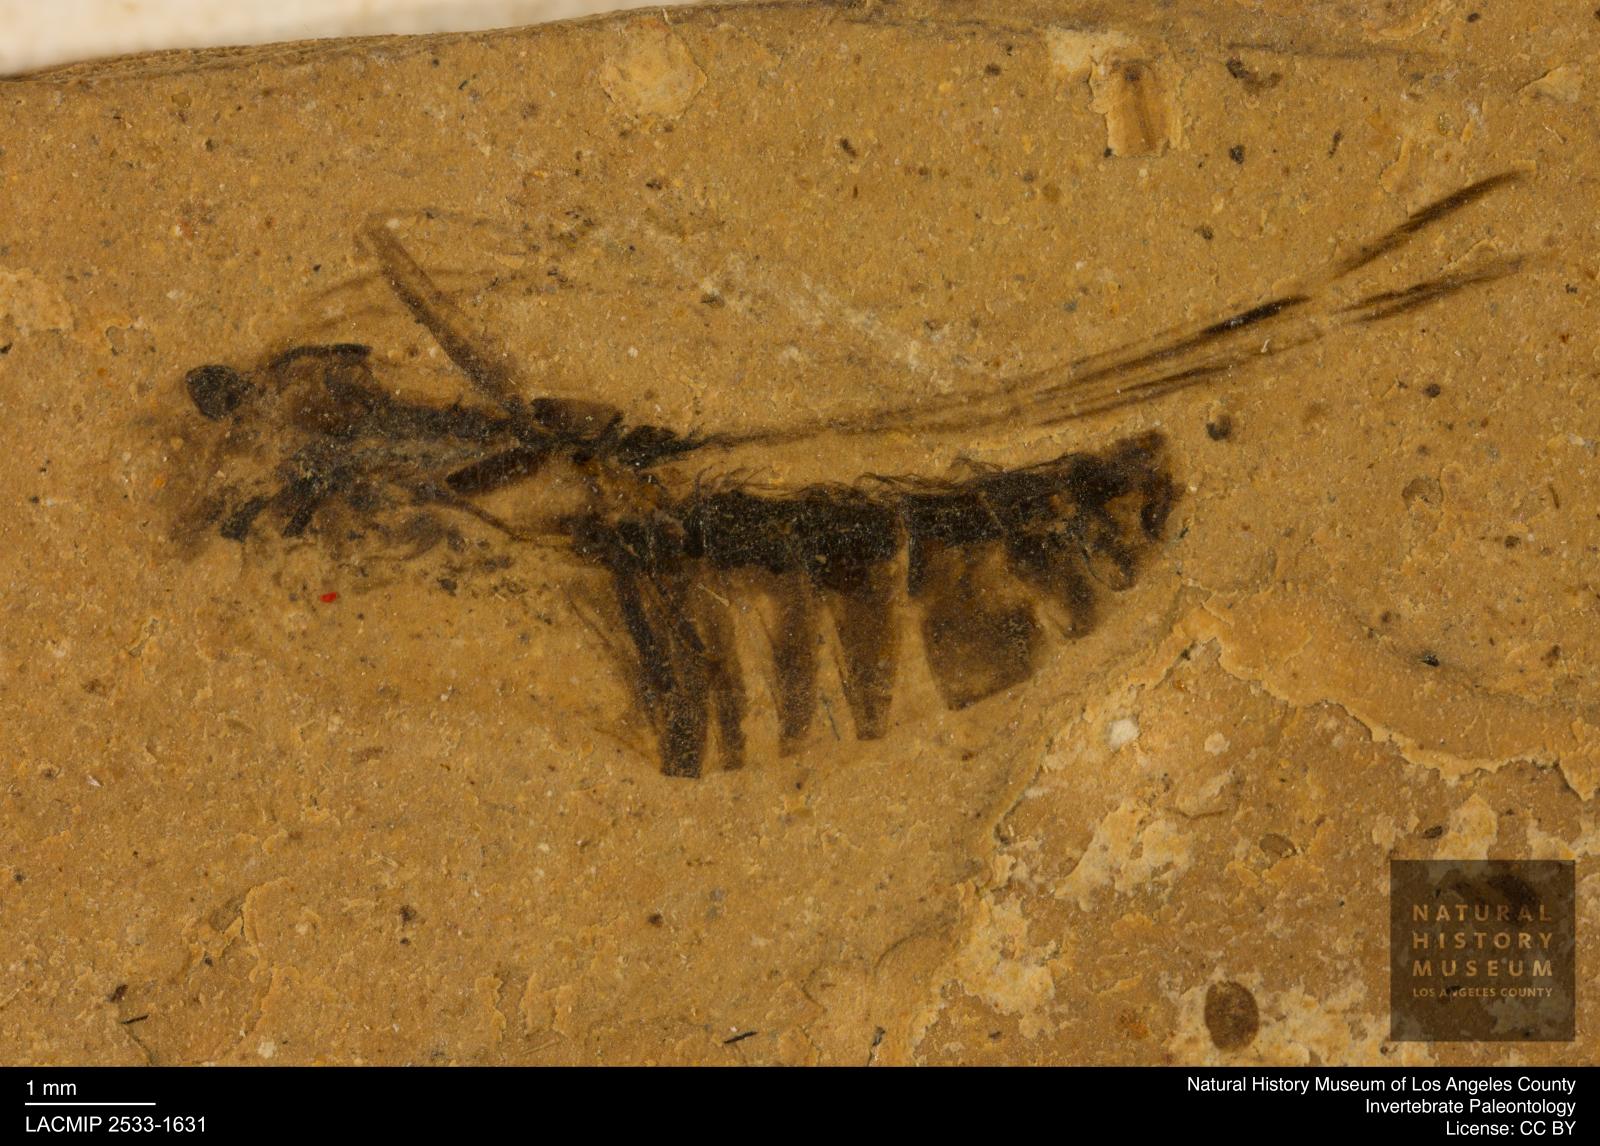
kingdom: Animalia
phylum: Arthropoda
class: Insecta
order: Hemiptera
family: Notonectidae
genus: Notonecta
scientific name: Notonecta
